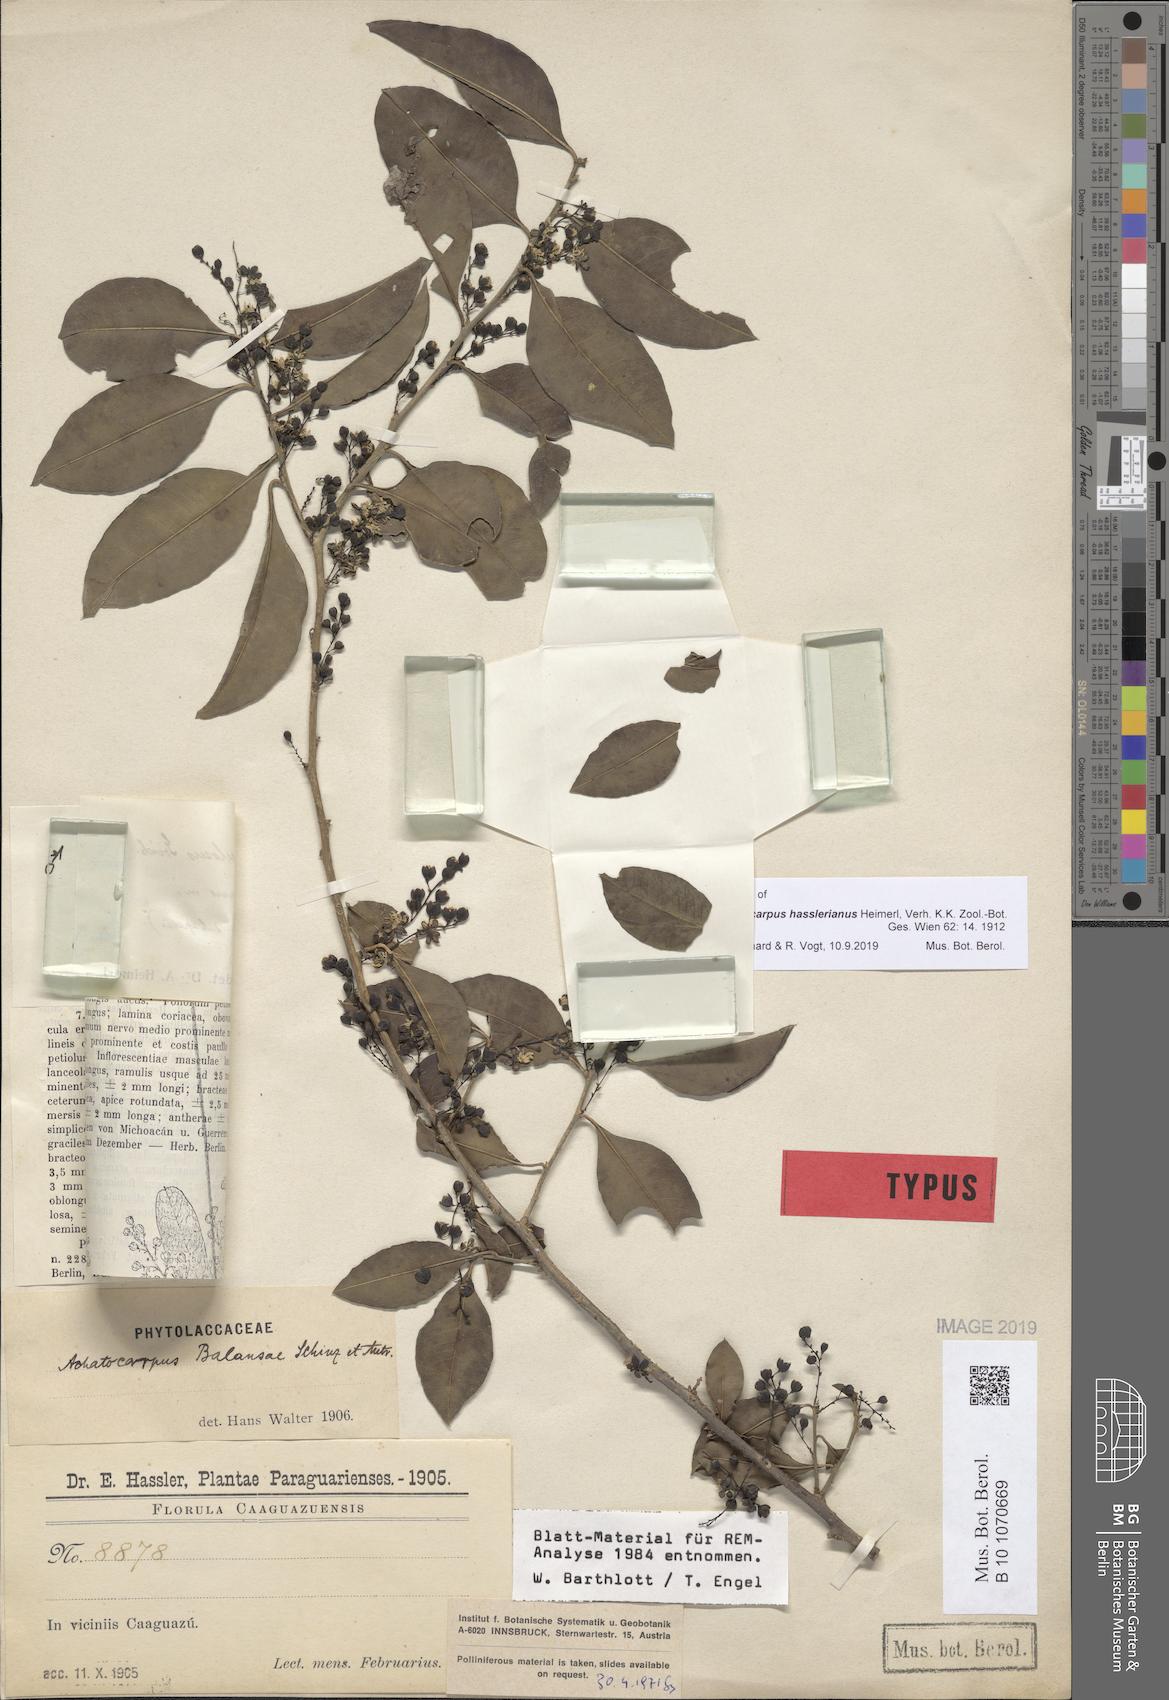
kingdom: Plantae
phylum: Tracheophyta
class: Magnoliopsida
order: Caryophyllales
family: Achatocarpaceae
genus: Achatocarpus
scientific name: Achatocarpus hasslerianus
